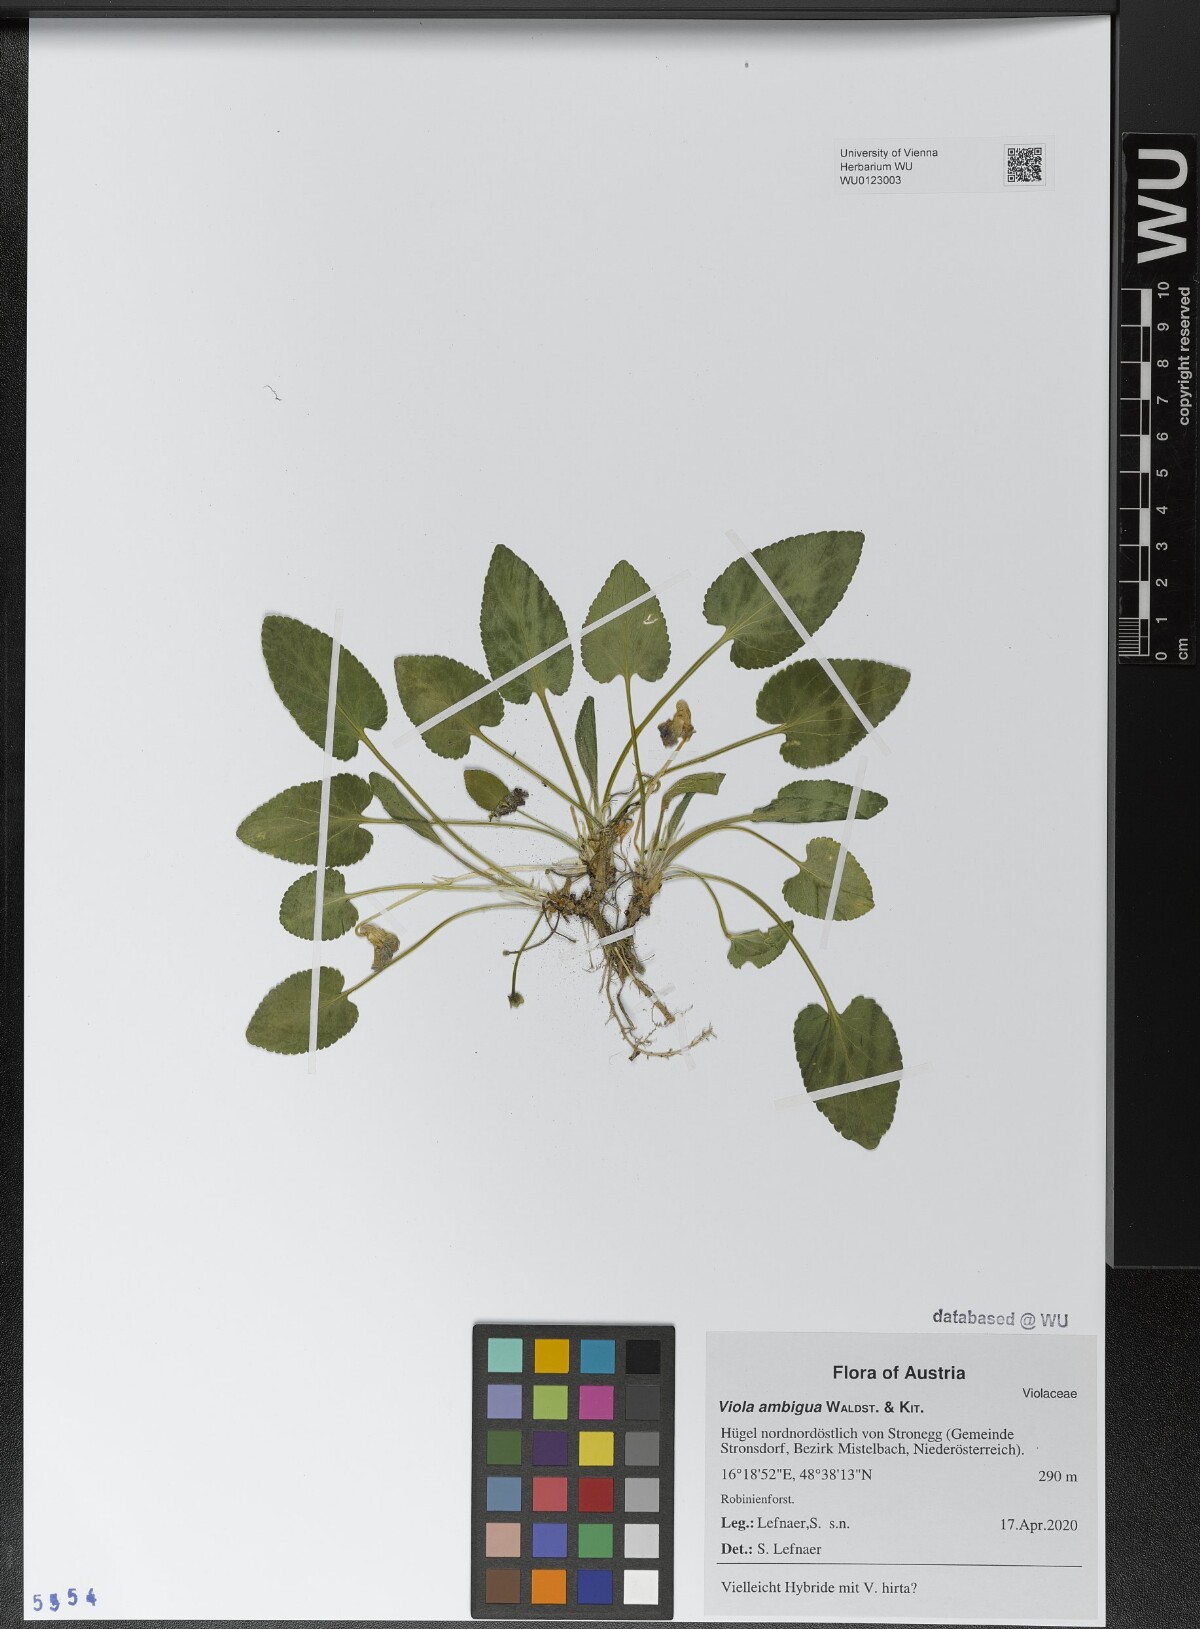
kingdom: Plantae
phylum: Tracheophyta
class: Magnoliopsida
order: Malpighiales
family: Violaceae
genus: Viola
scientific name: Viola ambigua
